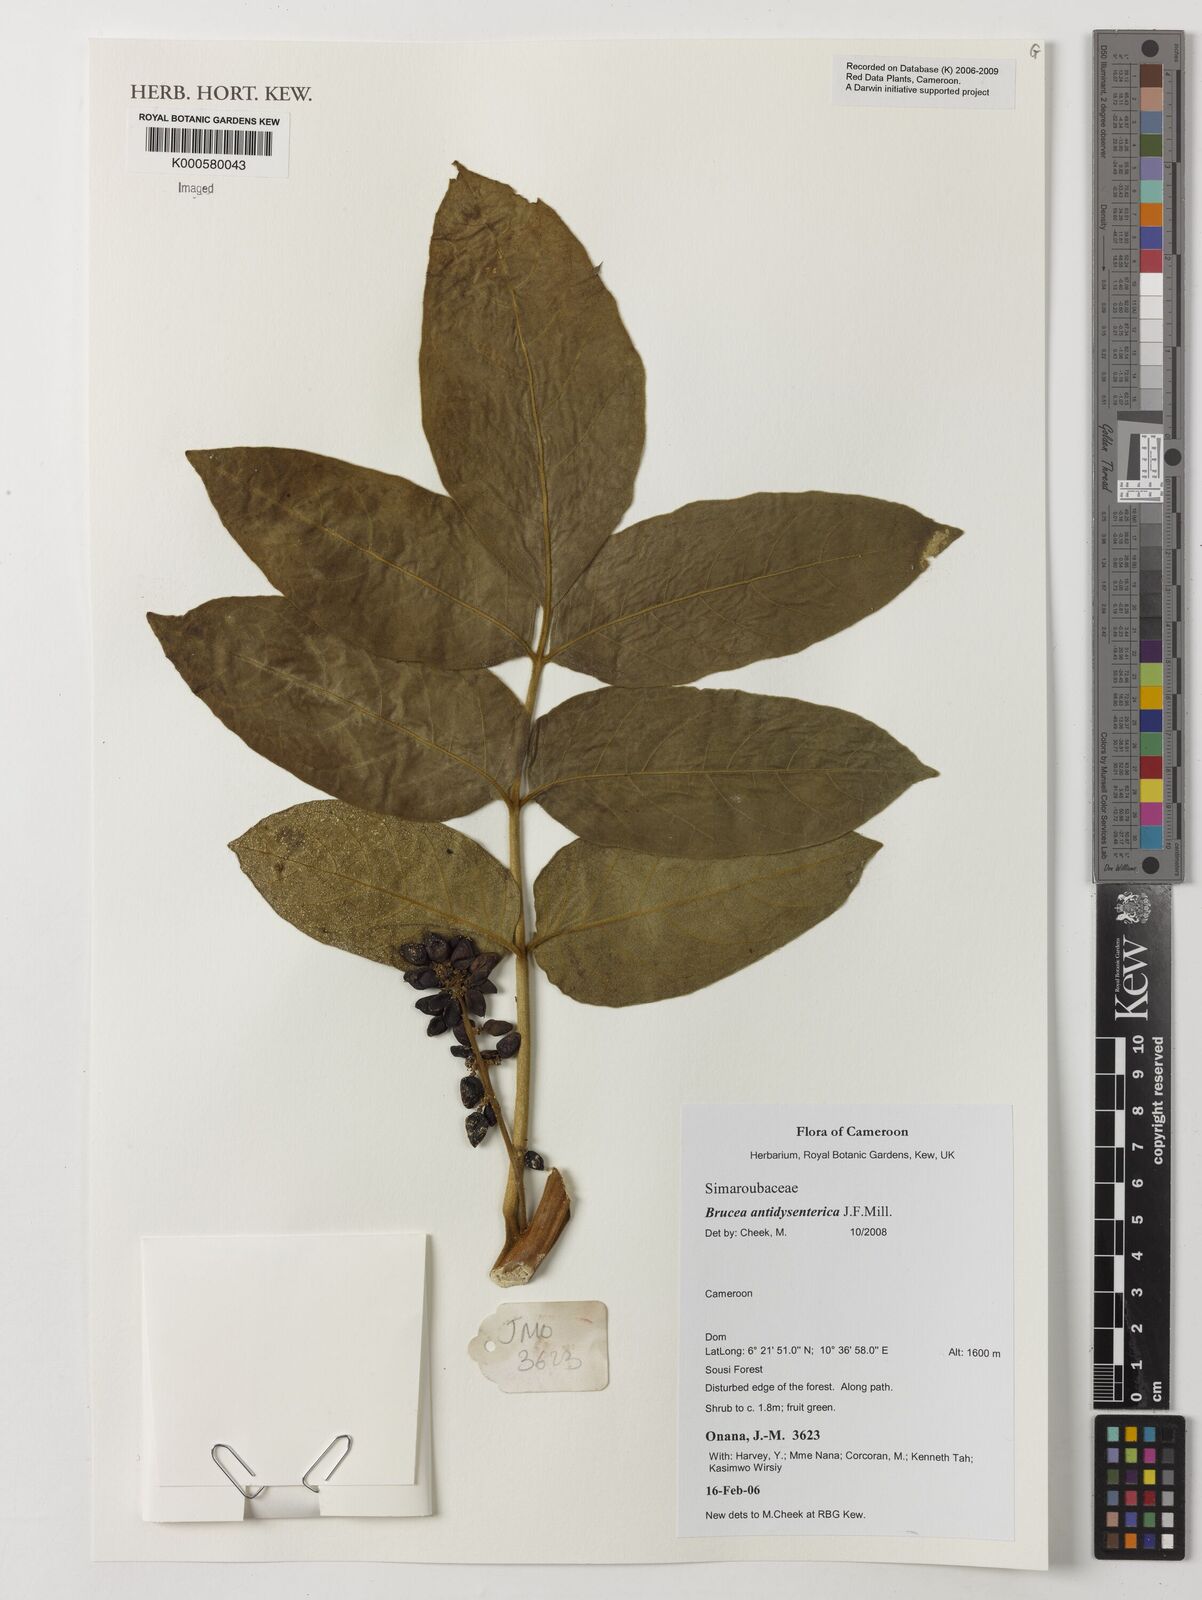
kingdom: Plantae
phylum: Tracheophyta
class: Magnoliopsida
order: Sapindales
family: Simaroubaceae
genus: Brucea
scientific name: Brucea antidysenterica
